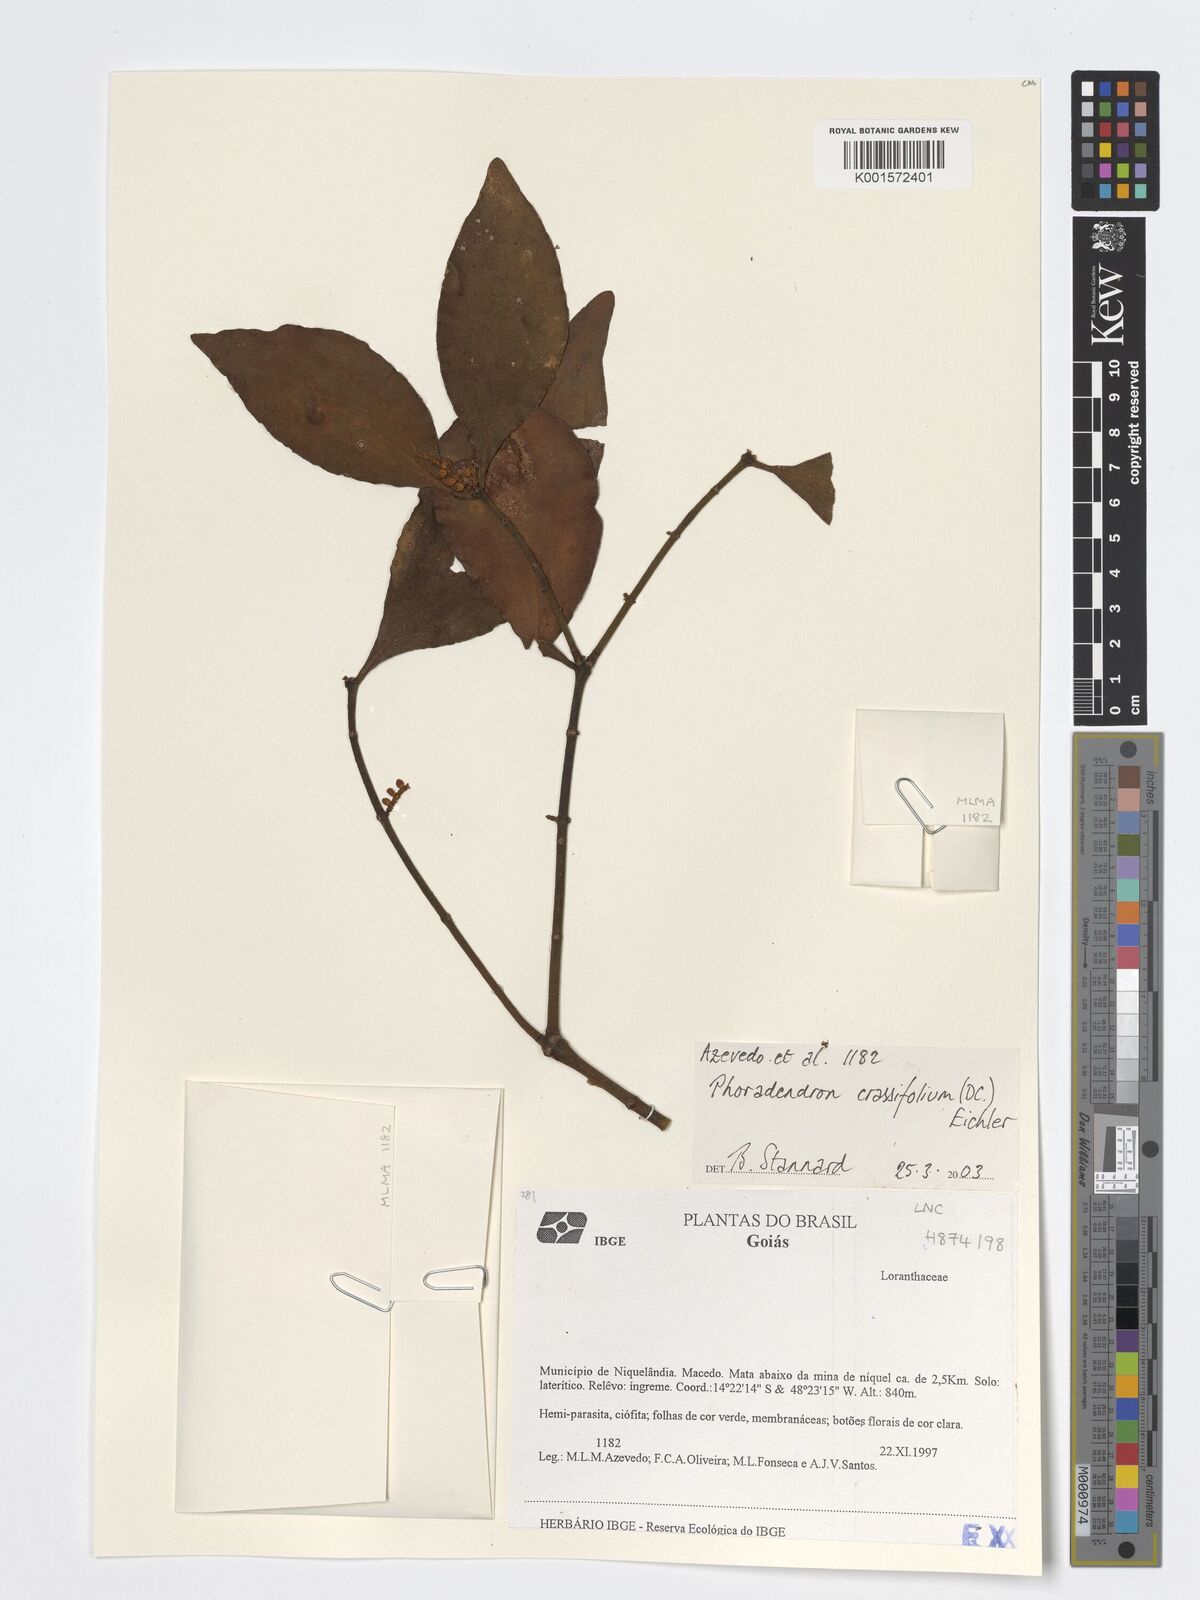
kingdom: Plantae
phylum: Tracheophyta
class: Magnoliopsida
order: Santalales
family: Viscaceae
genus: Phoradendron
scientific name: Phoradendron crassifolium
